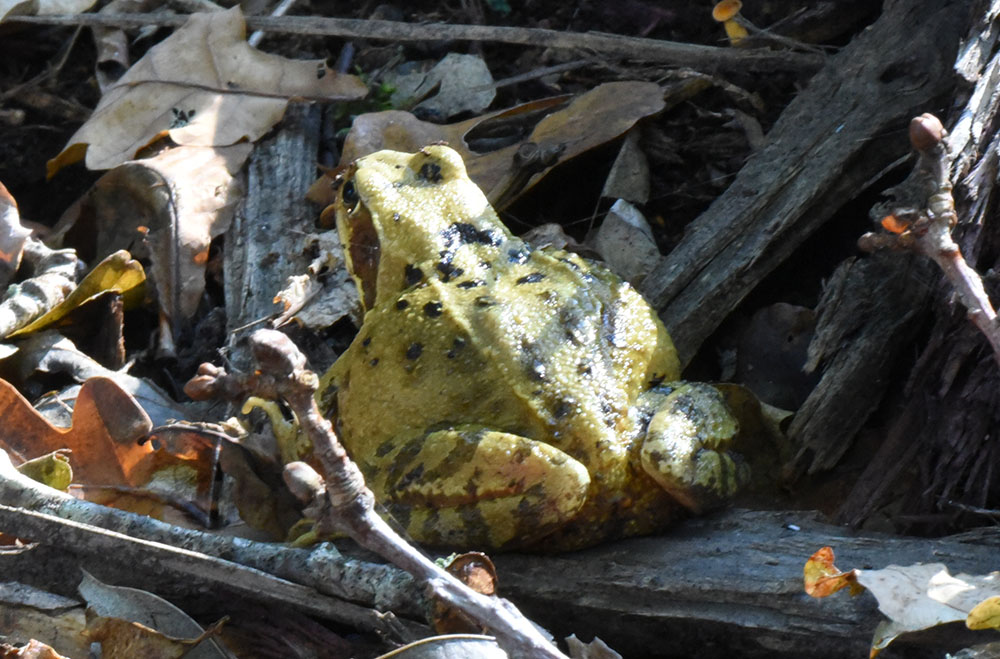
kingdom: Animalia
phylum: Chordata
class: Amphibia
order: Anura
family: Ranidae
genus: Rana
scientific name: Rana temporaria
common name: Common frog
